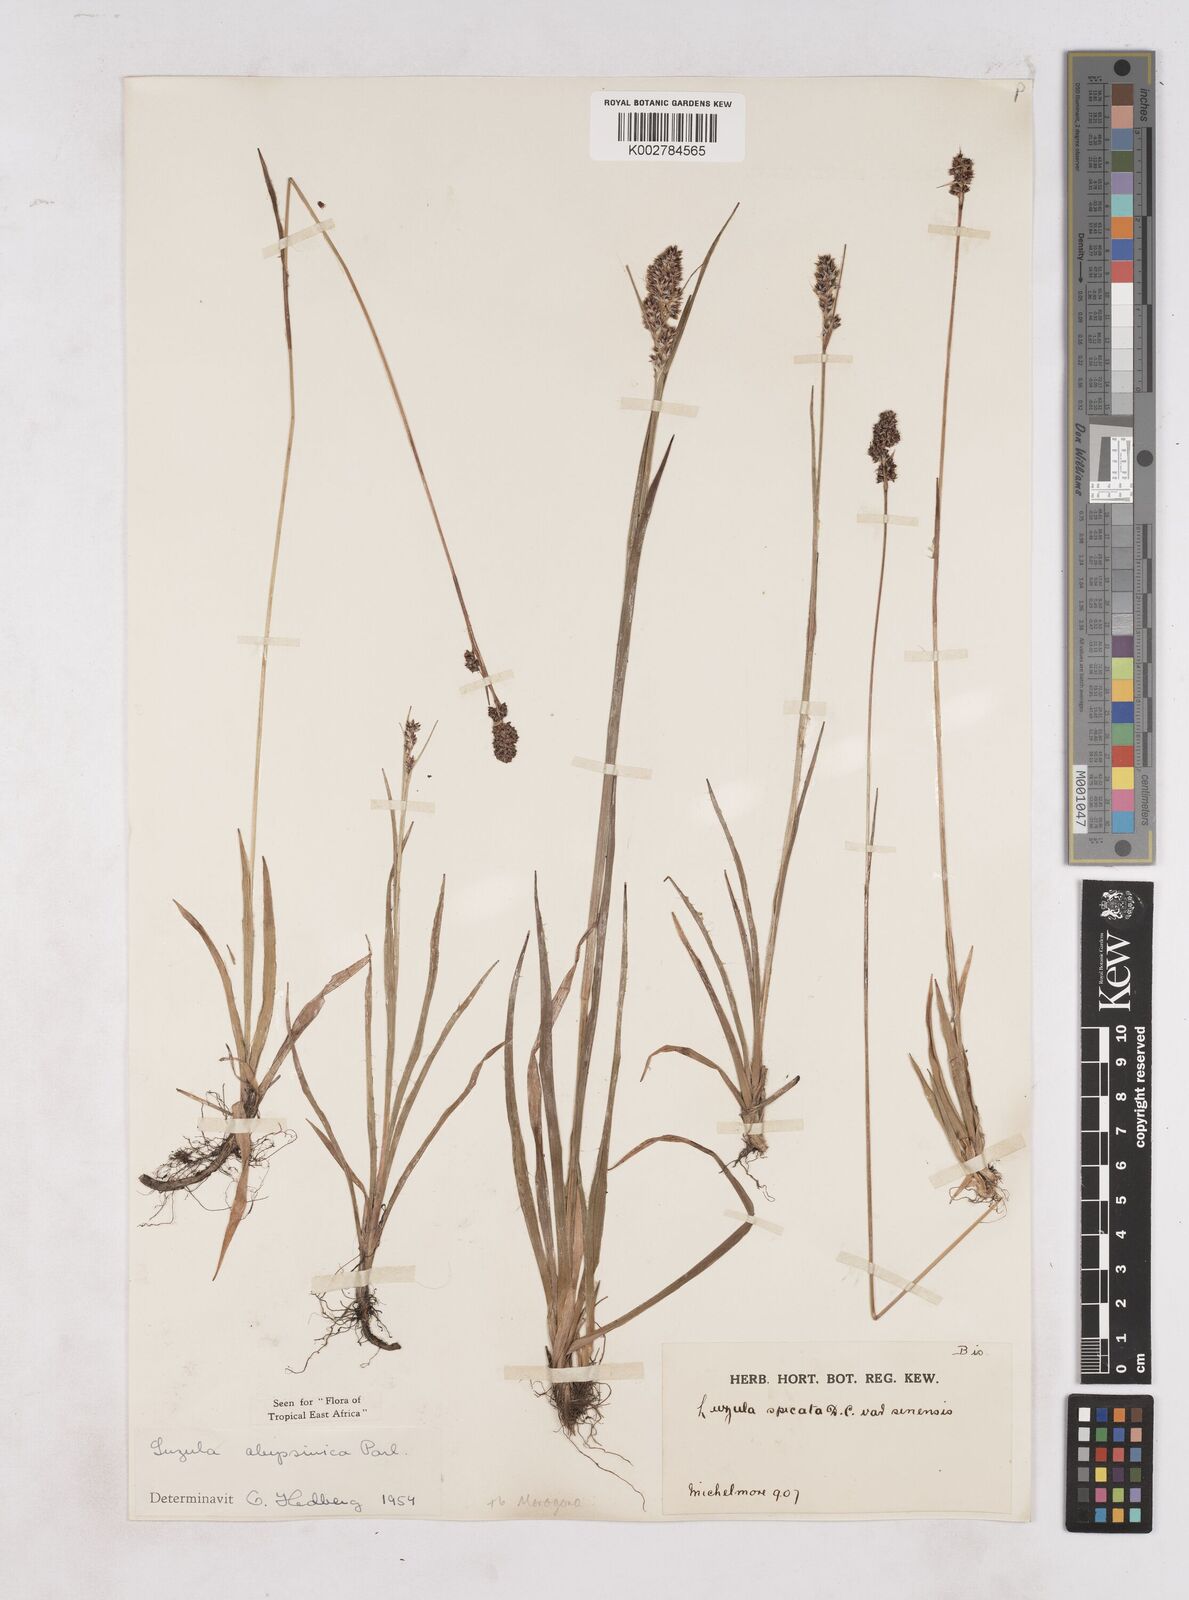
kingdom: Plantae
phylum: Tracheophyta
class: Liliopsida
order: Poales
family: Juncaceae
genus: Luzula
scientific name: Luzula abyssinica
